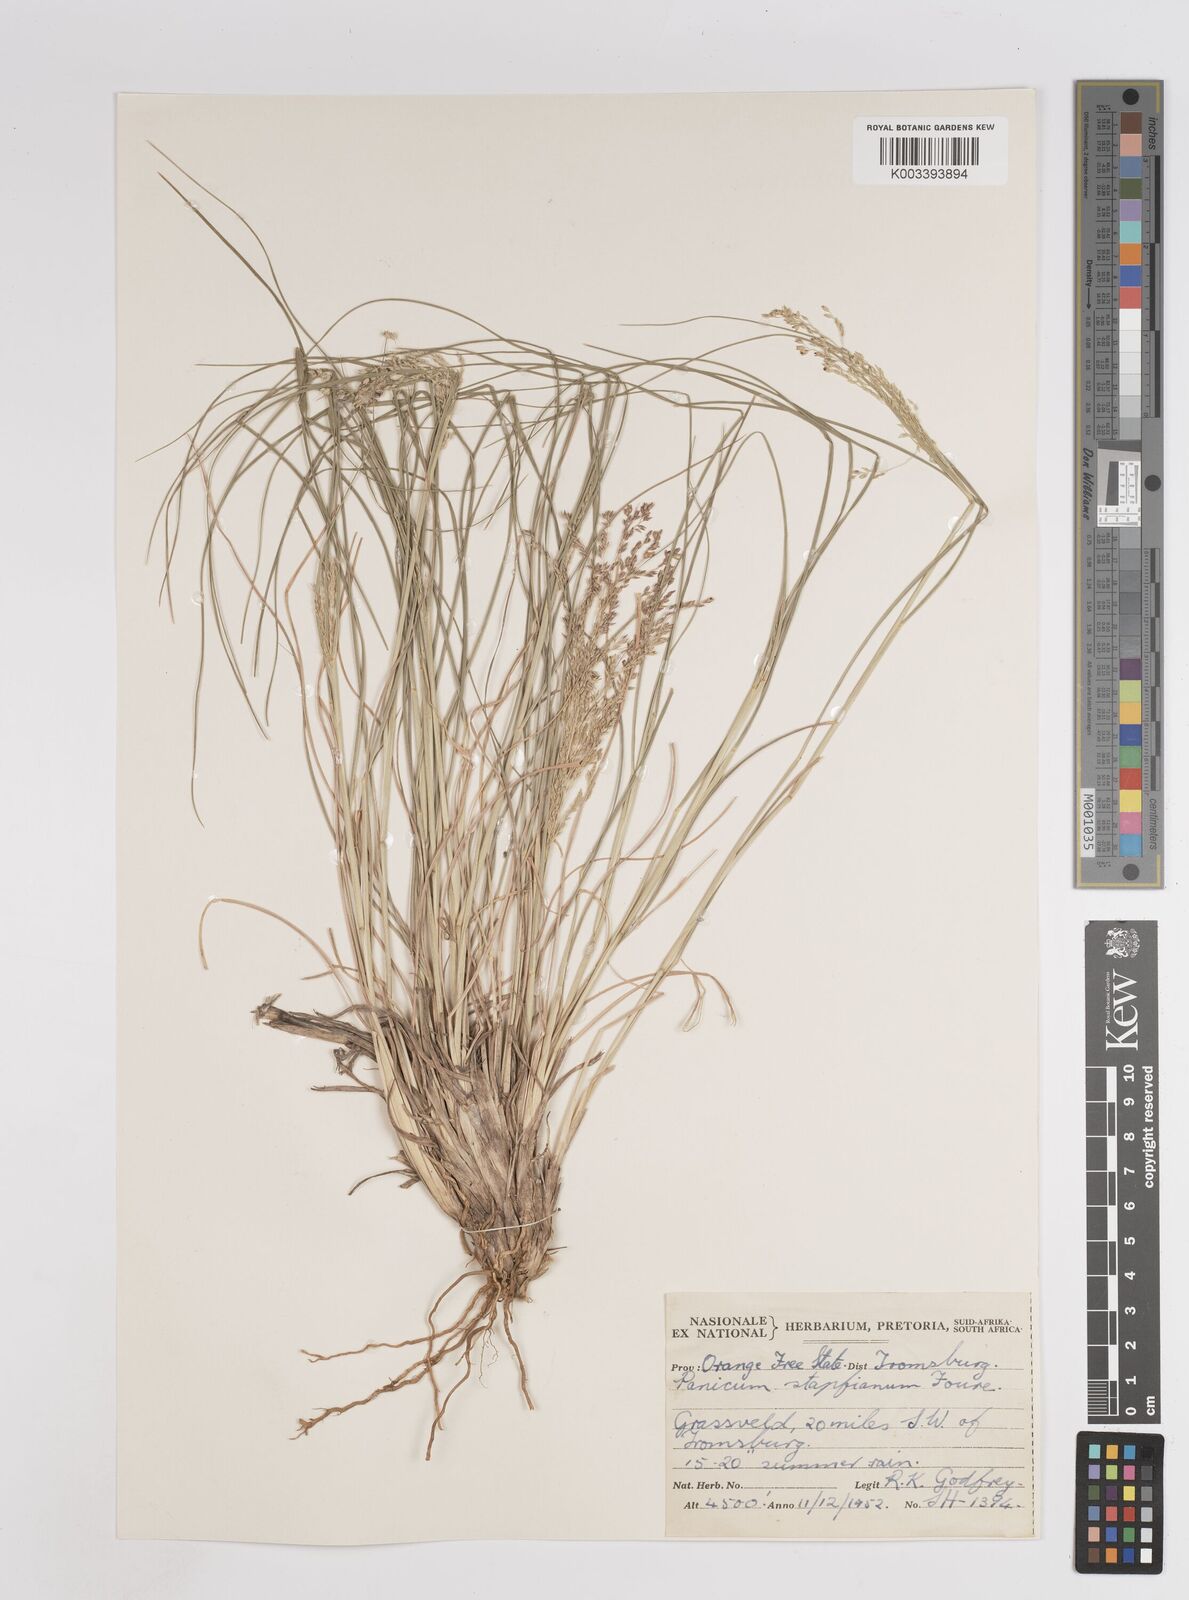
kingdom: Plantae
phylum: Tracheophyta
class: Liliopsida
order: Poales
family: Poaceae
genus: Panicum
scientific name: Panicum stapfianum
